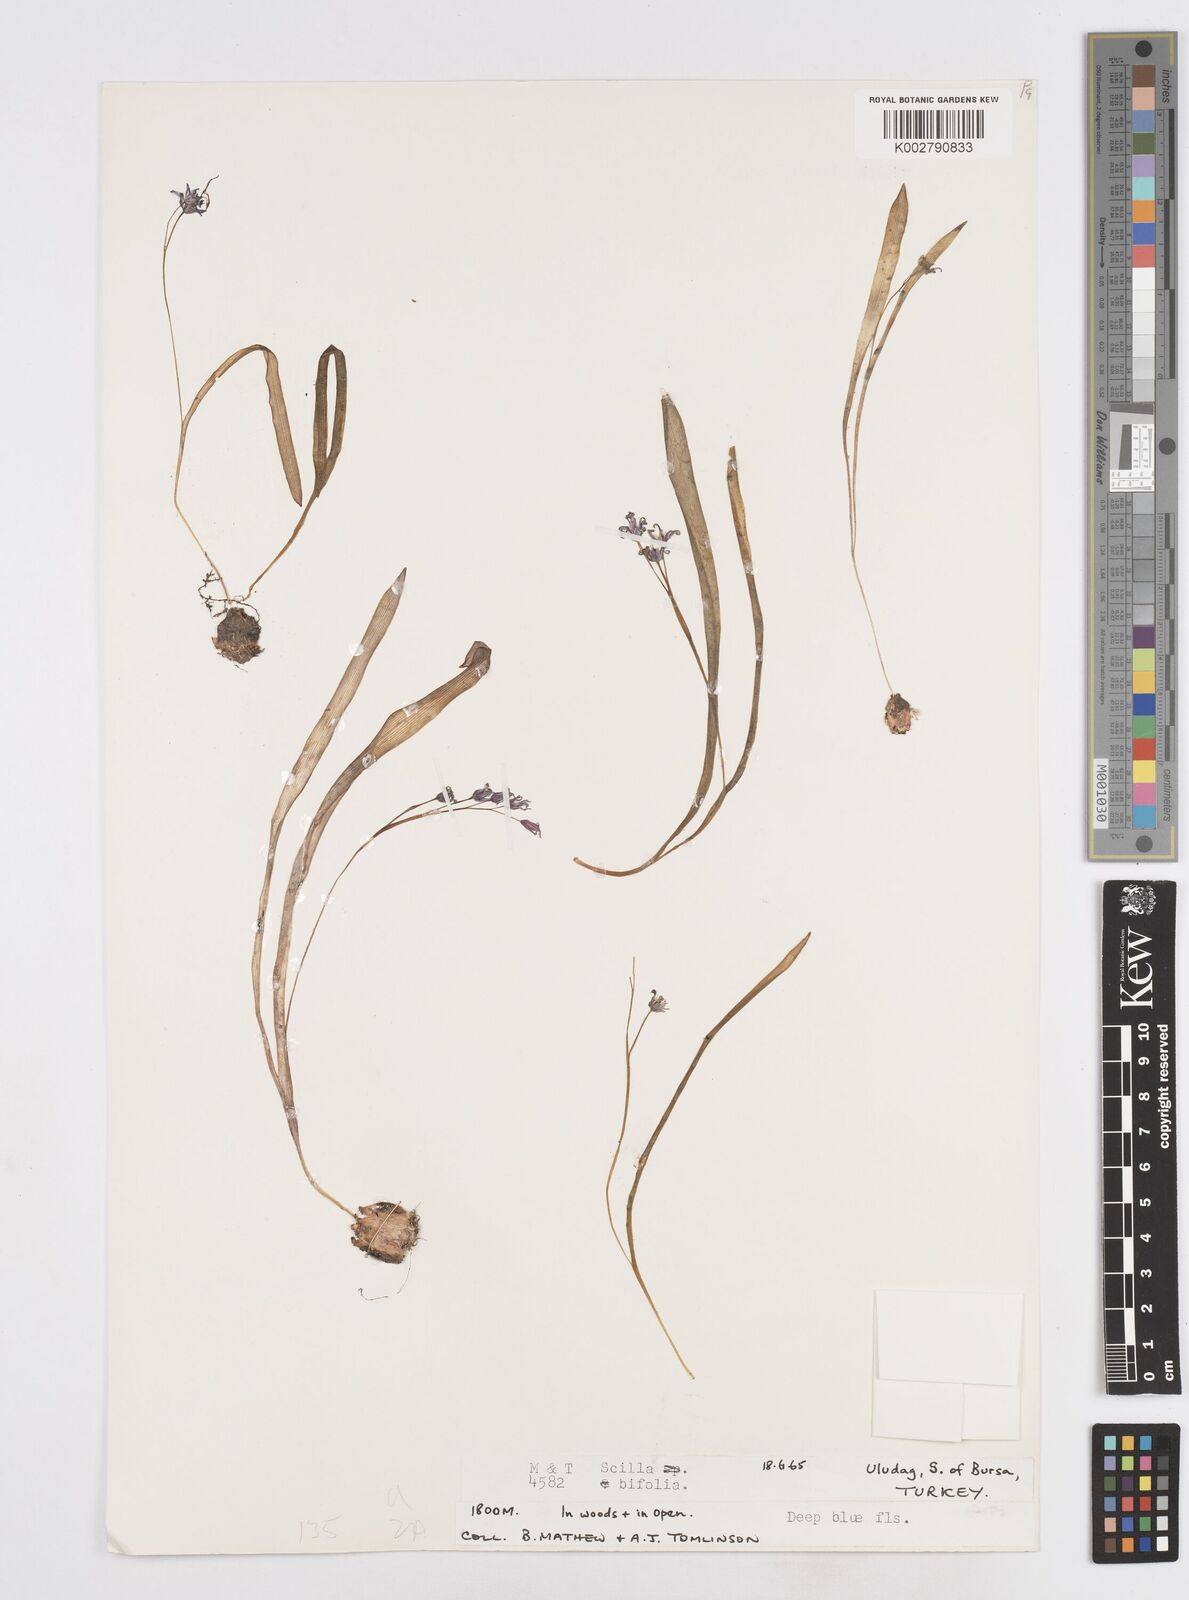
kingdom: Plantae
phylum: Tracheophyta
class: Liliopsida
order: Asparagales
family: Asparagaceae
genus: Scilla
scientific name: Scilla bifolia
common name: Alpine squill
